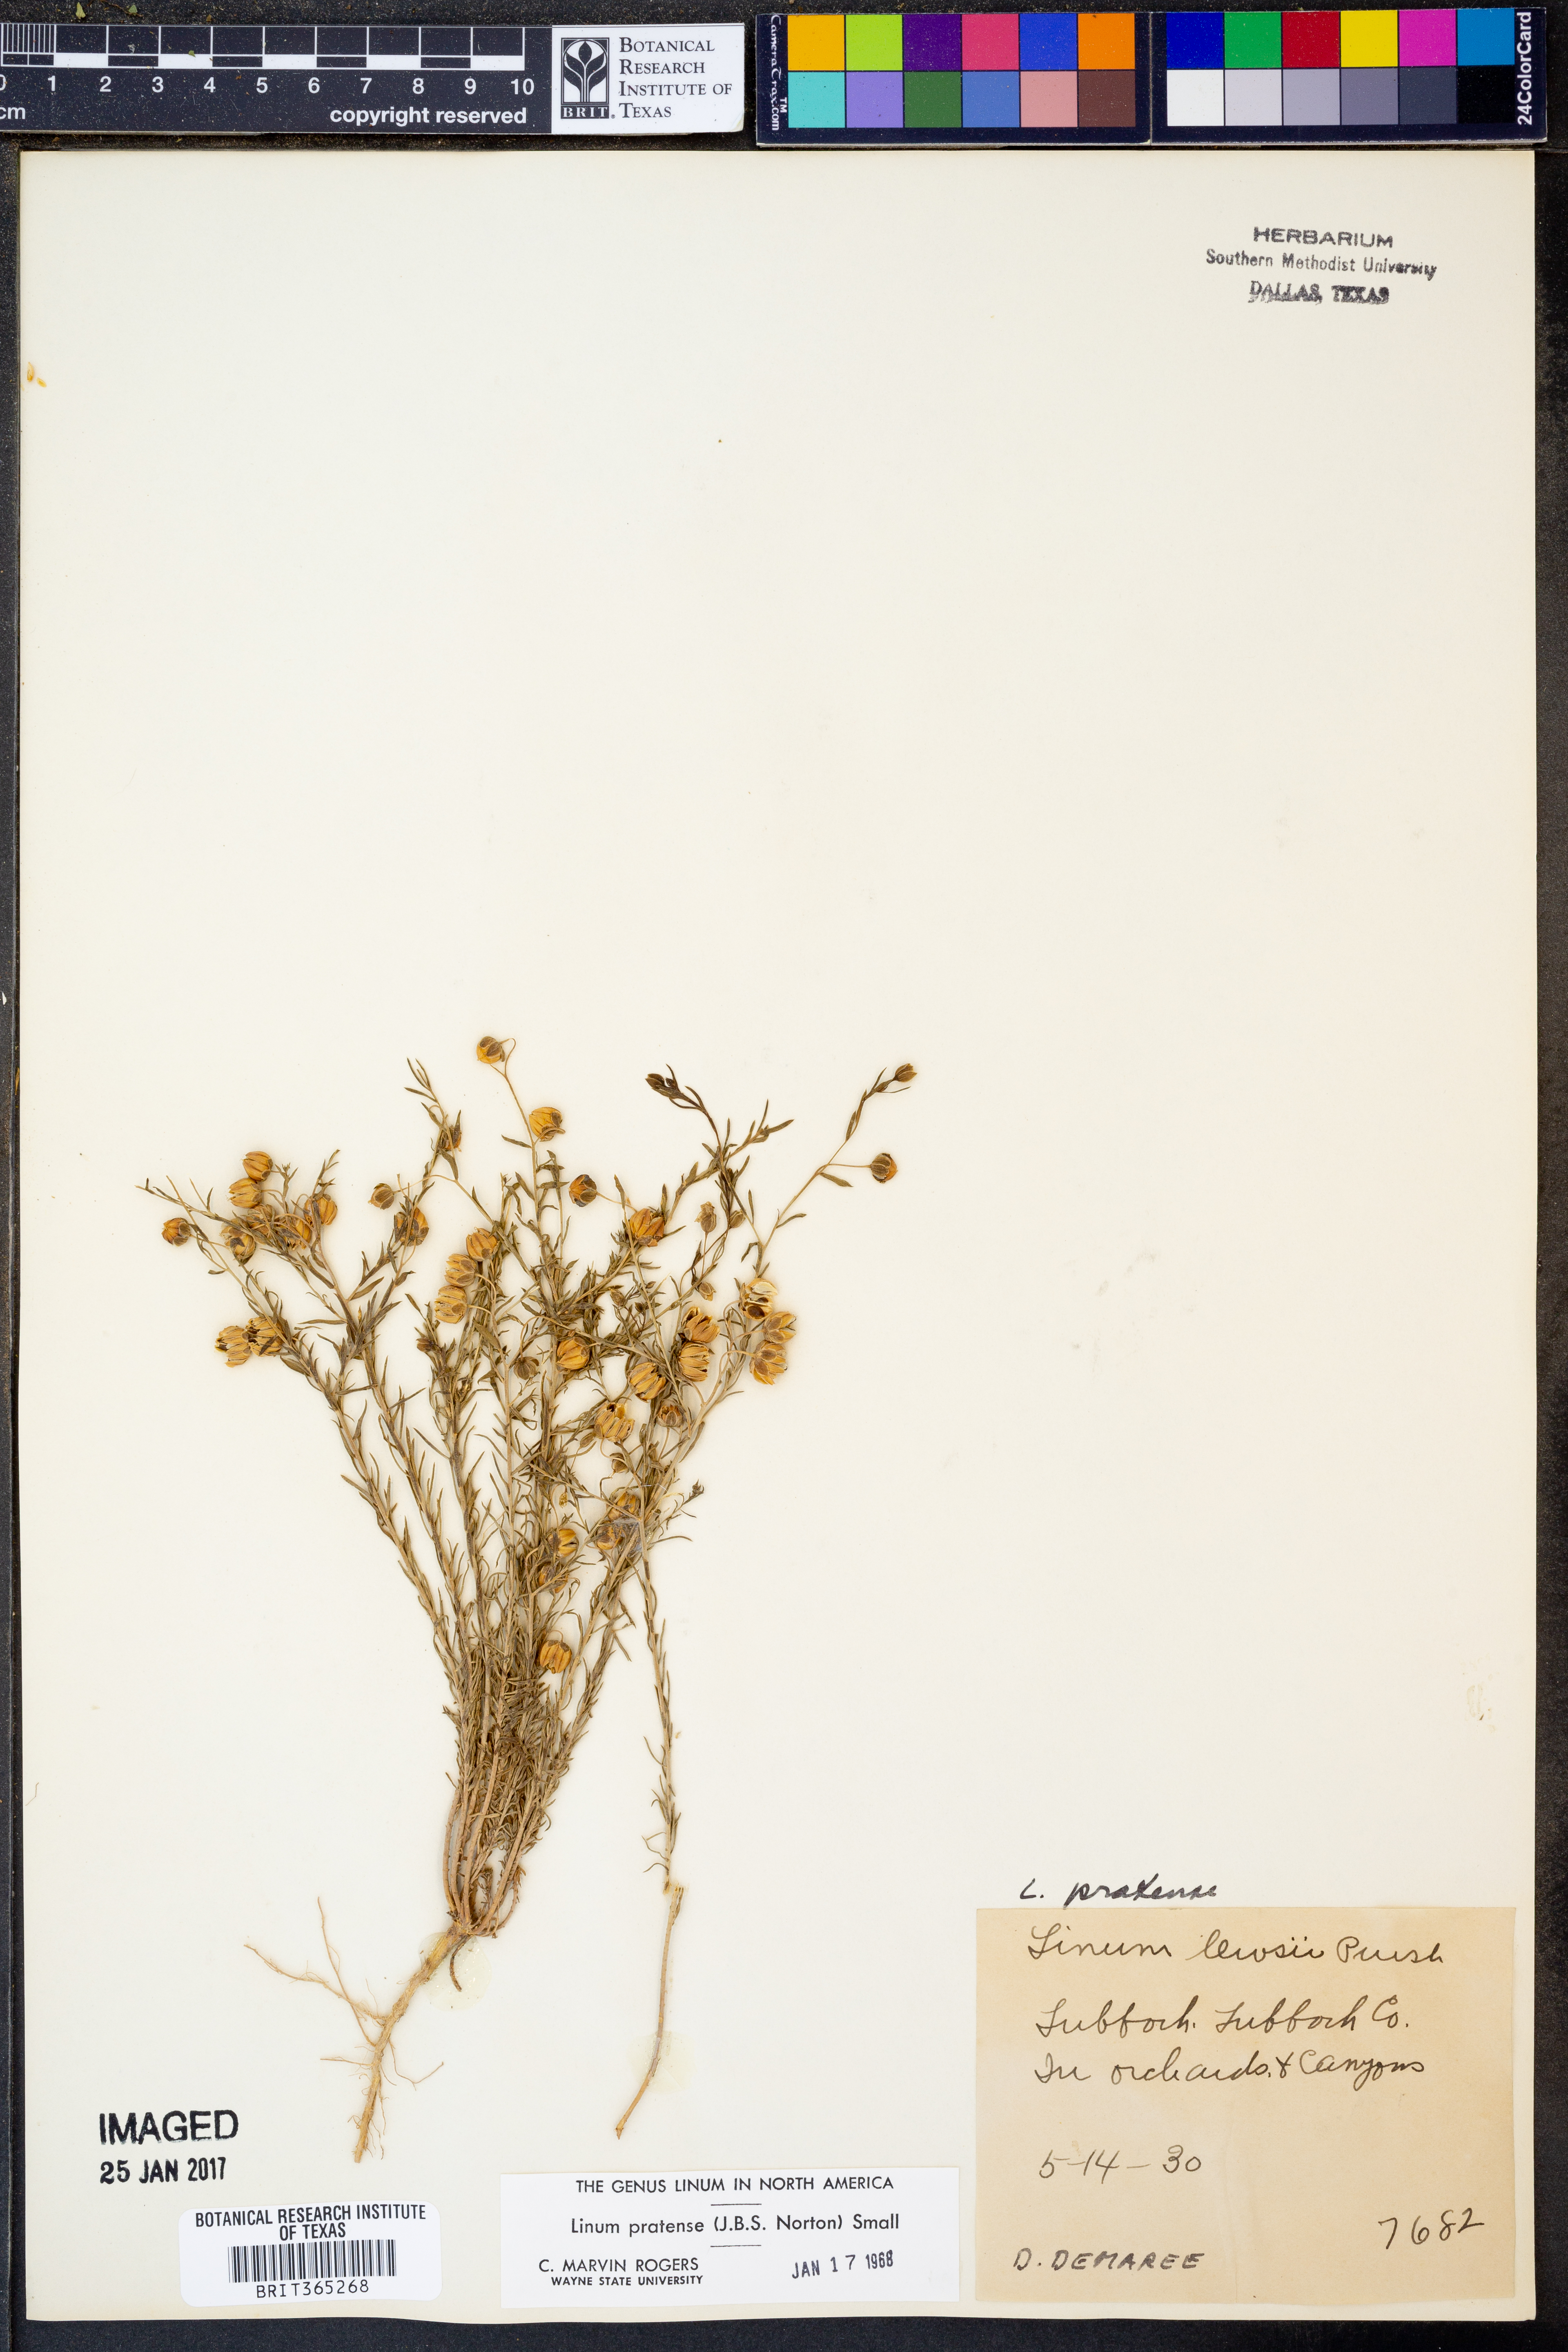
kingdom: Plantae
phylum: Tracheophyta
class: Magnoliopsida
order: Malpighiales
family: Linaceae
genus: Linum
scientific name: Linum pratense
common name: Norton's flax
